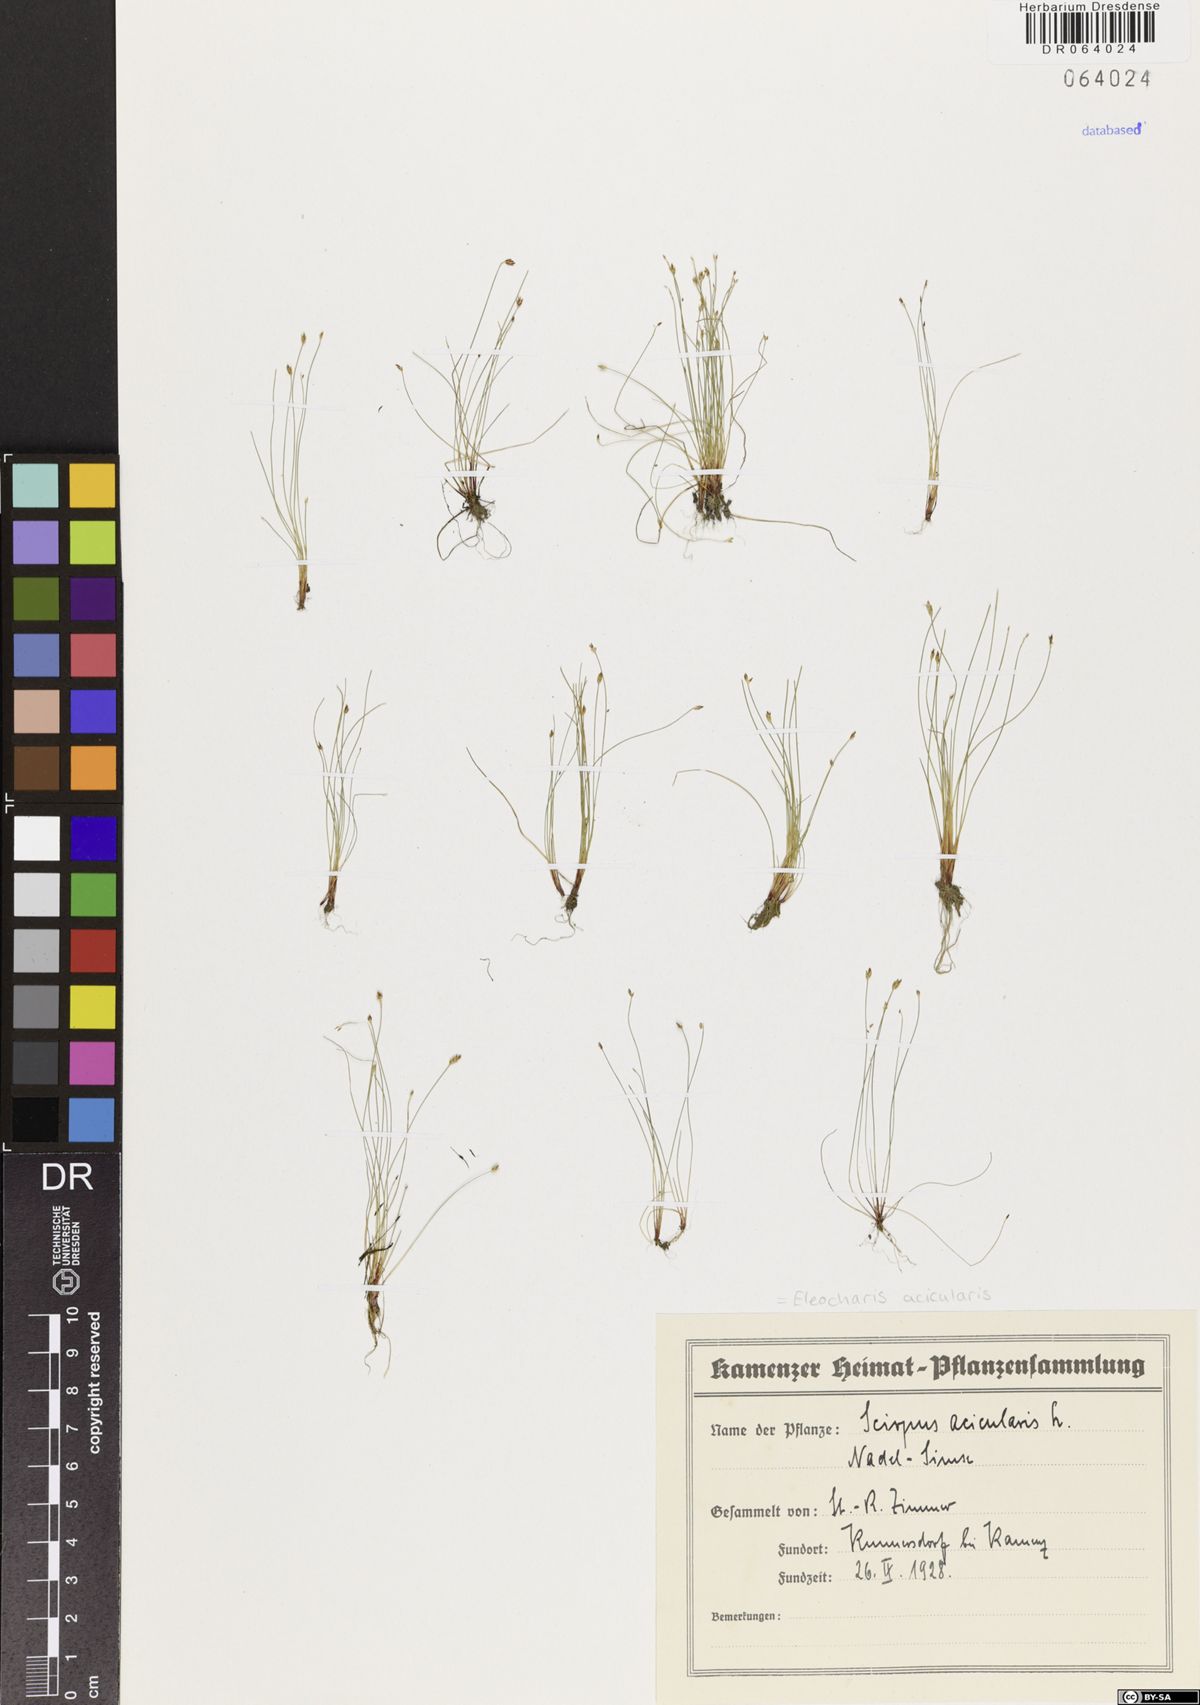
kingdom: Plantae
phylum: Tracheophyta
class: Liliopsida
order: Poales
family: Cyperaceae
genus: Eleocharis
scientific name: Eleocharis acicularis
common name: Needle spike-rush
